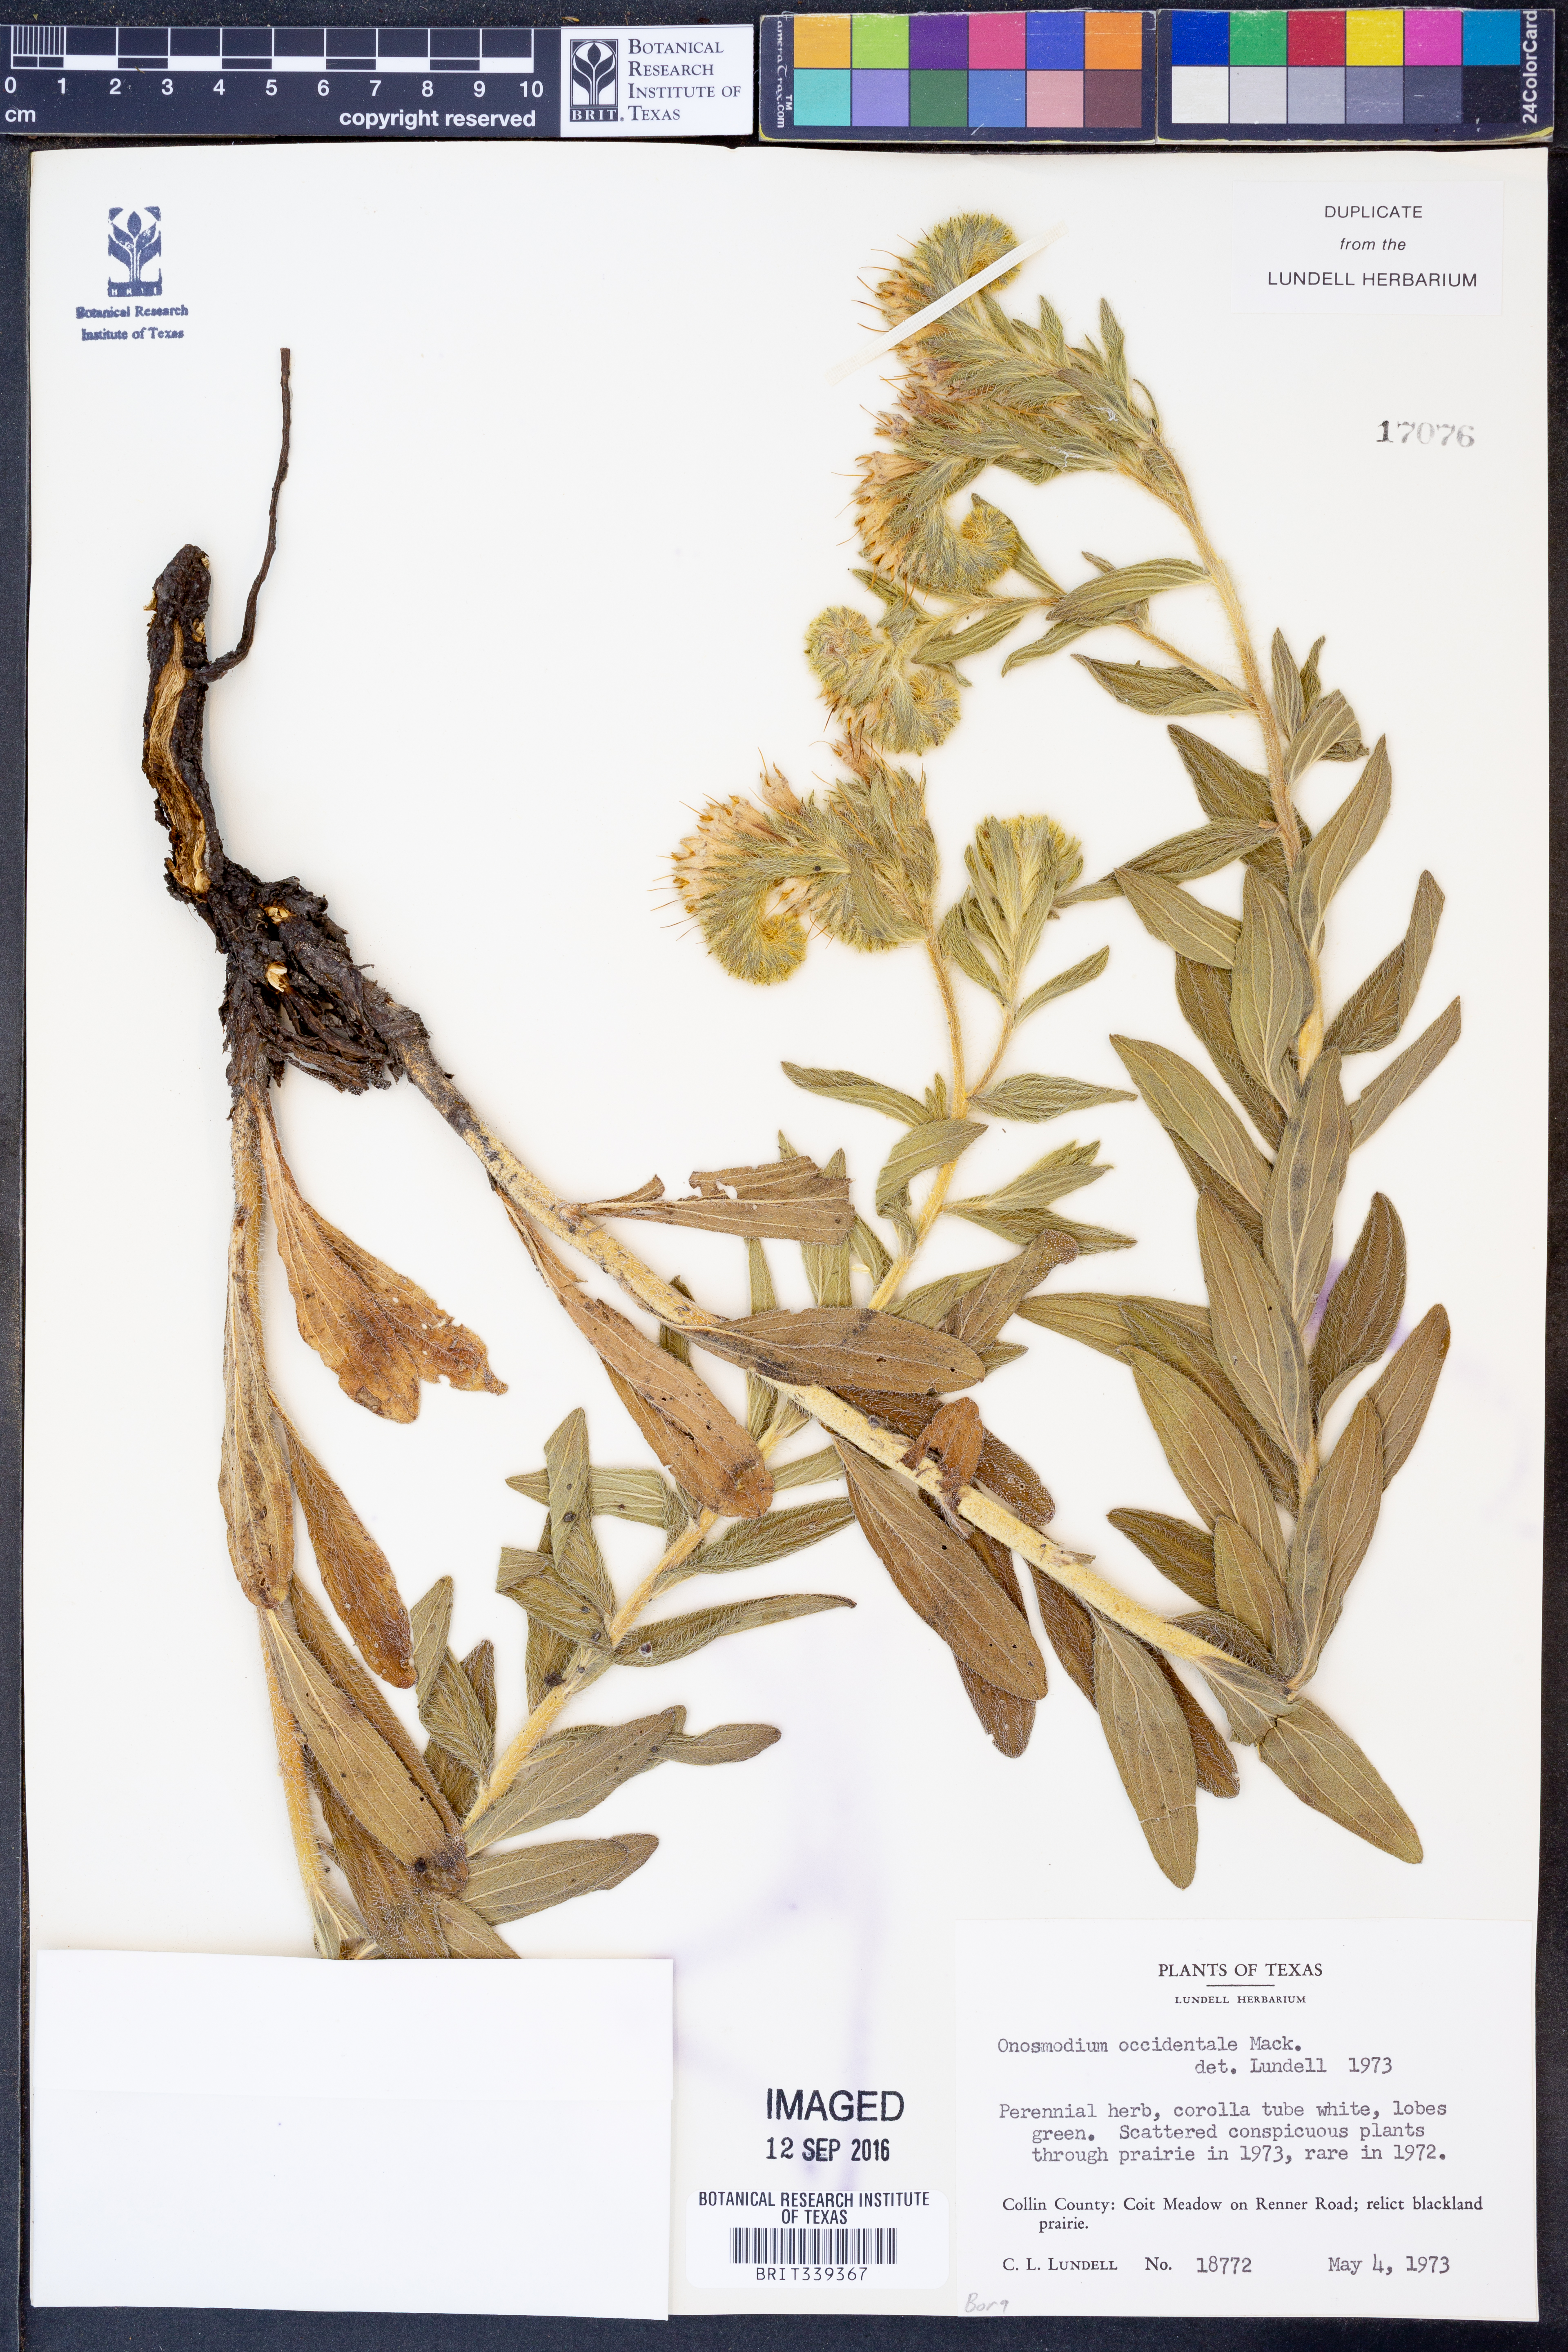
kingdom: Plantae
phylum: Tracheophyta
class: Magnoliopsida
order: Boraginales
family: Boraginaceae
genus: Lithospermum
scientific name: Lithospermum occidentale
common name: Western false gromwell
